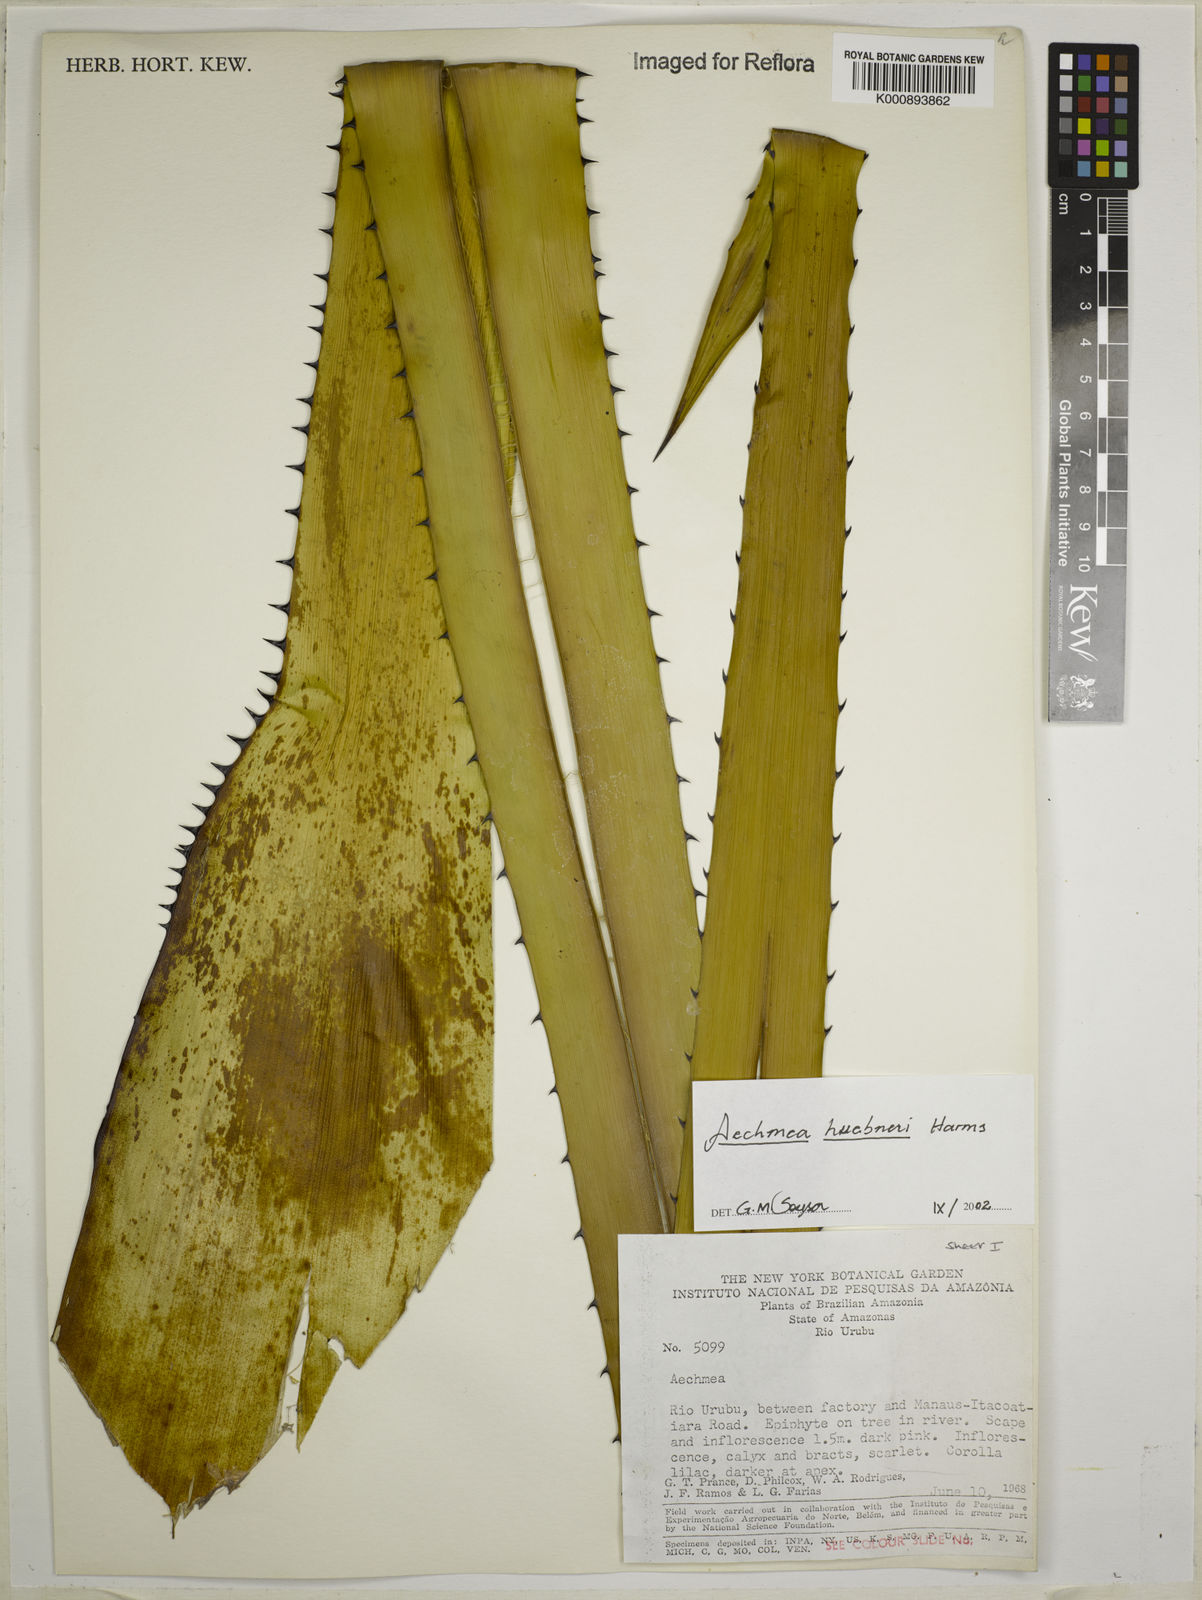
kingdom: Plantae
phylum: Tracheophyta
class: Liliopsida
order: Poales
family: Bromeliaceae
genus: Aechmea
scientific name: Aechmea huebneri
